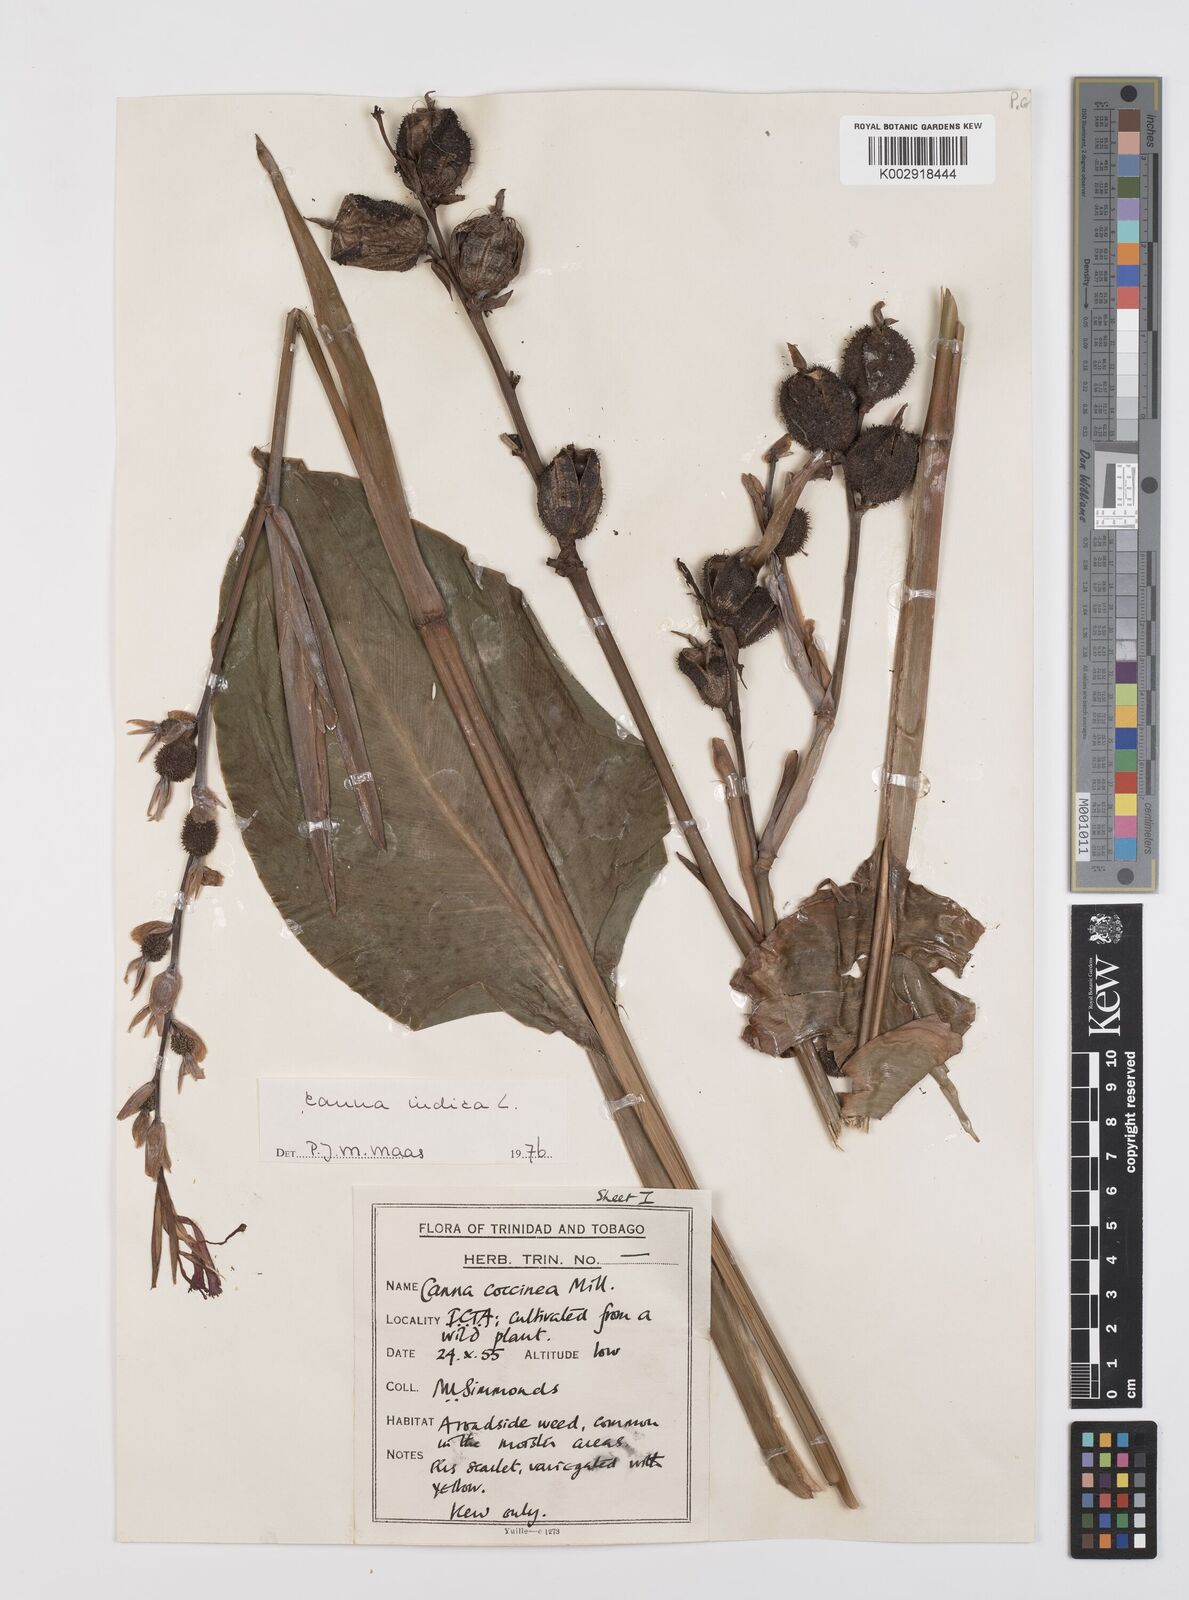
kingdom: Plantae
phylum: Tracheophyta
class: Liliopsida
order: Zingiberales
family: Cannaceae
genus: Canna
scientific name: Canna indica
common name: Indian shot
